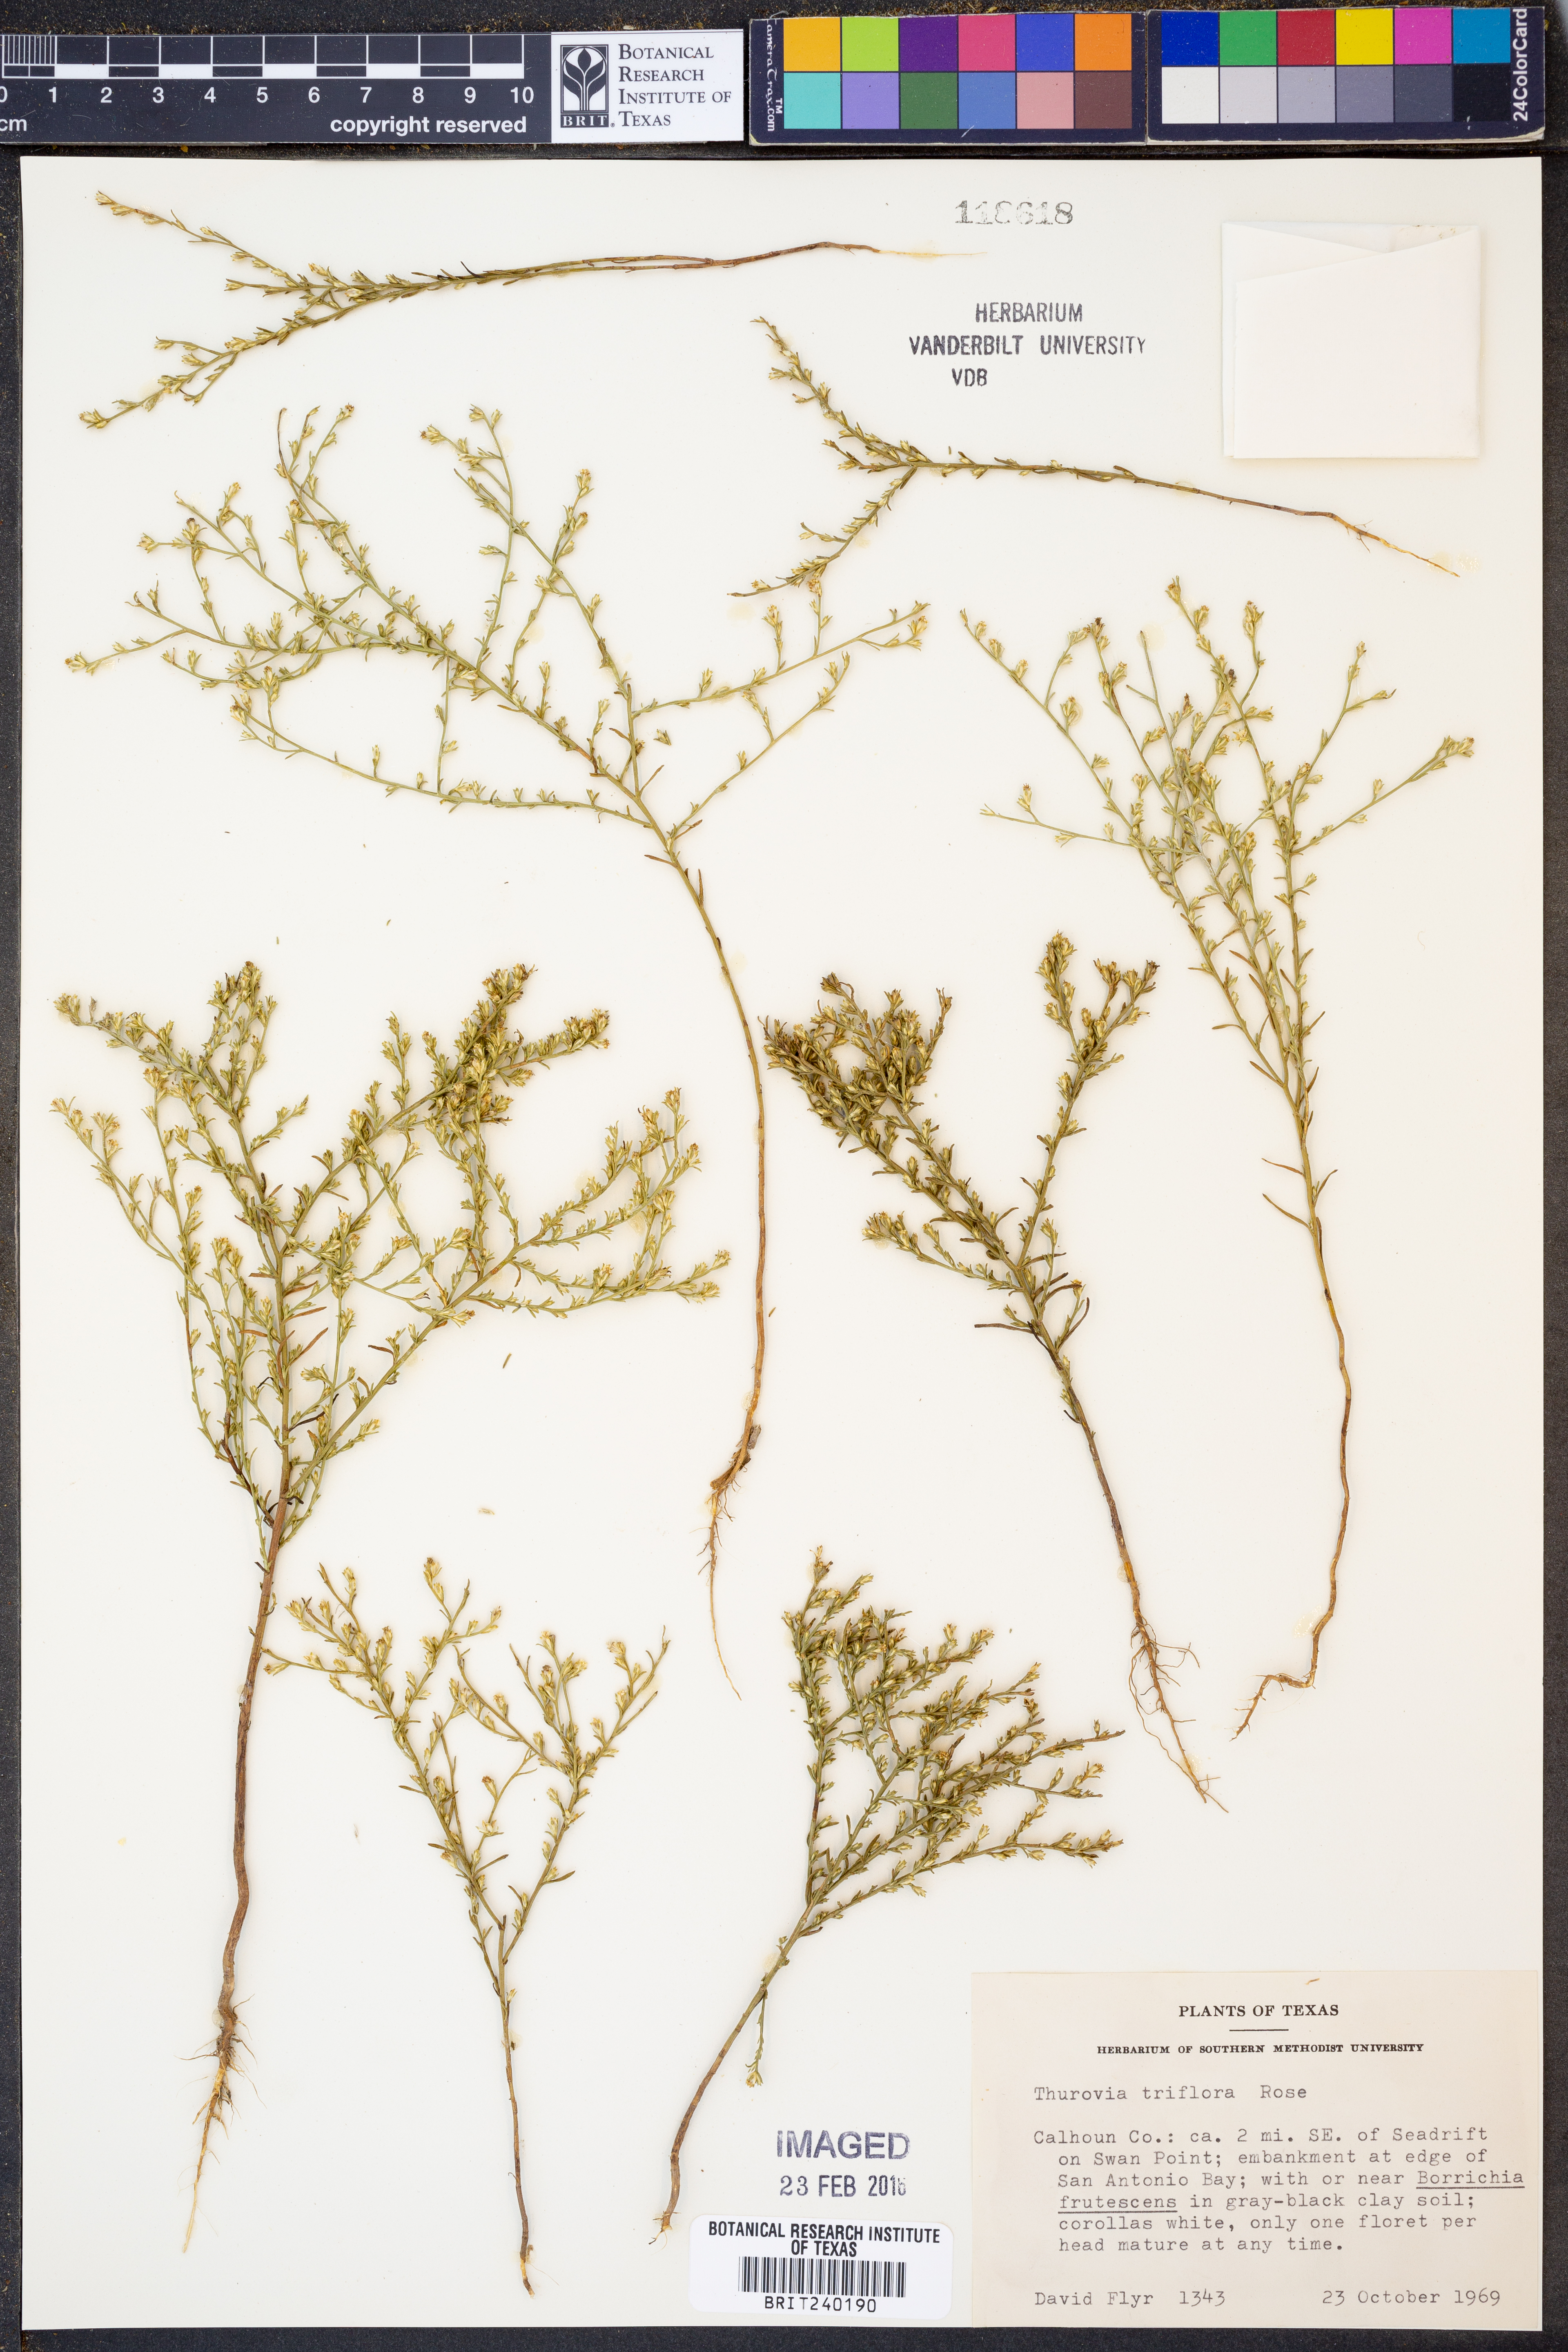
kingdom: Plantae
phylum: Tracheophyta
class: Magnoliopsida
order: Asterales
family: Asteraceae
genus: Thurovia
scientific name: Thurovia triflora
